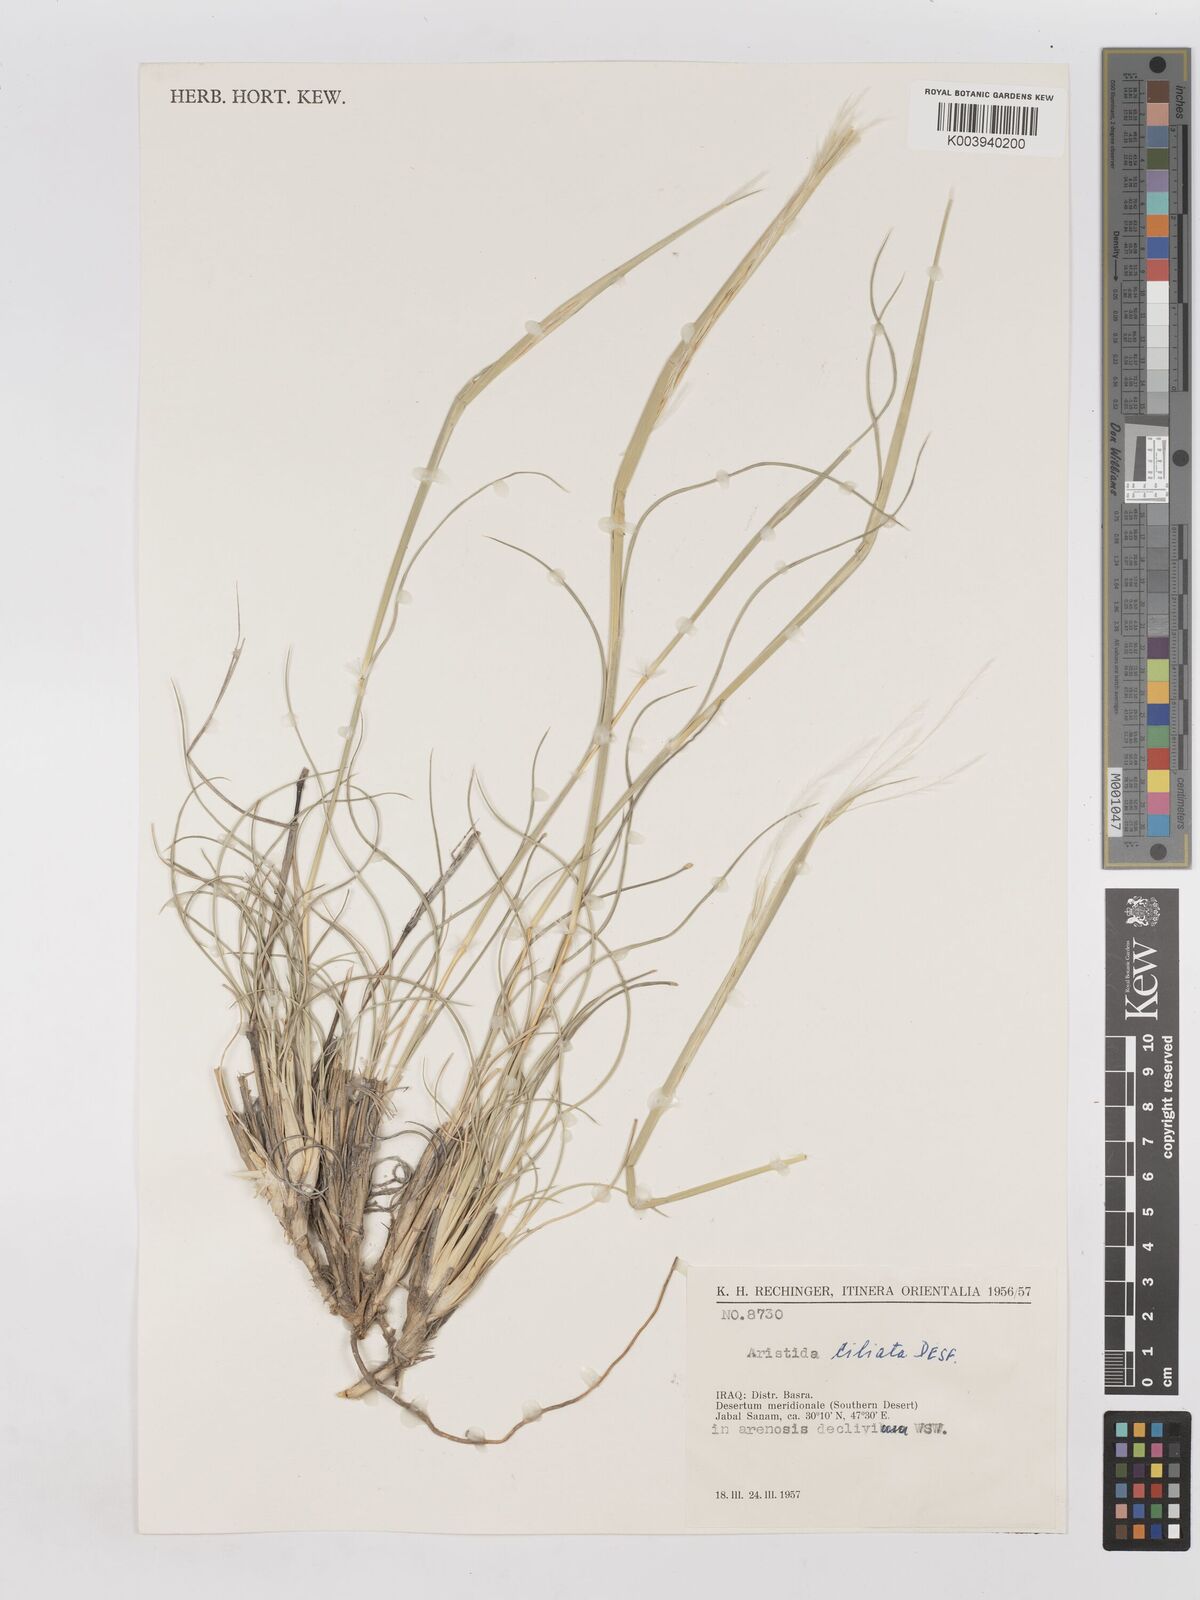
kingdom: Plantae
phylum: Tracheophyta
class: Liliopsida
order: Poales
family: Poaceae
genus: Stipagrostis
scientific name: Stipagrostis ciliata
